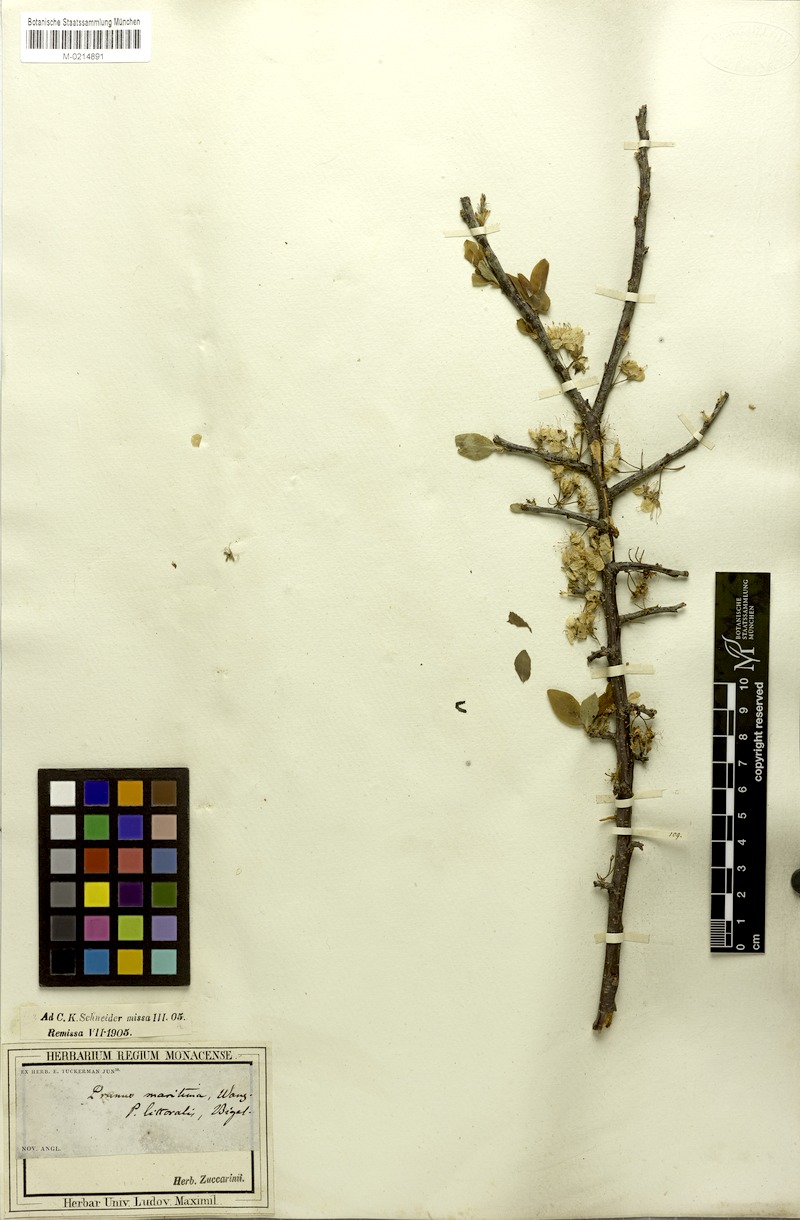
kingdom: Plantae
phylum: Tracheophyta
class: Magnoliopsida
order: Rosales
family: Rosaceae
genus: Prunus
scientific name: Prunus maritima
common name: Beach plum
